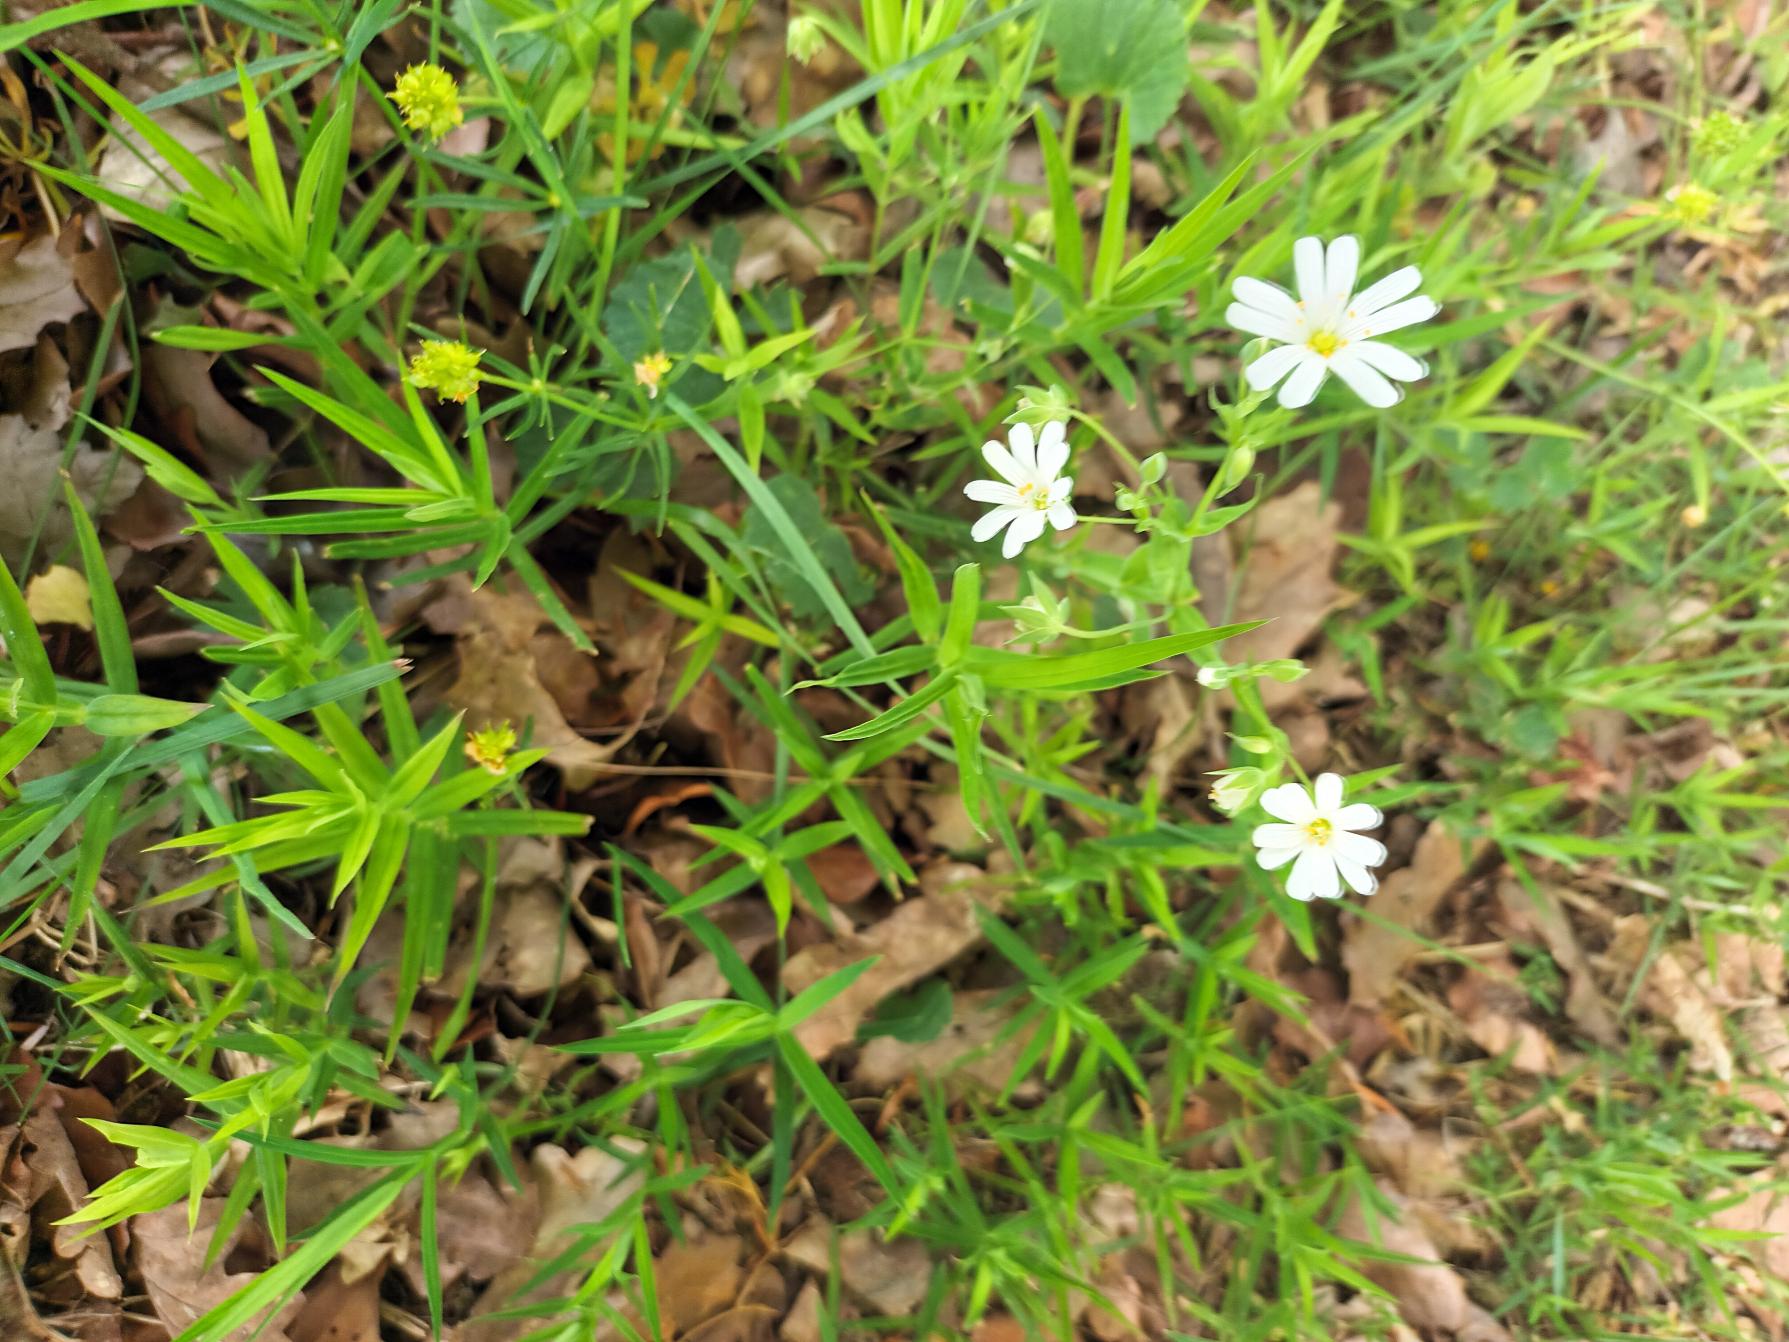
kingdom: Plantae
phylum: Tracheophyta
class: Magnoliopsida
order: Caryophyllales
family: Caryophyllaceae
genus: Rabelera
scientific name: Rabelera holostea
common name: Stor fladstjerne
